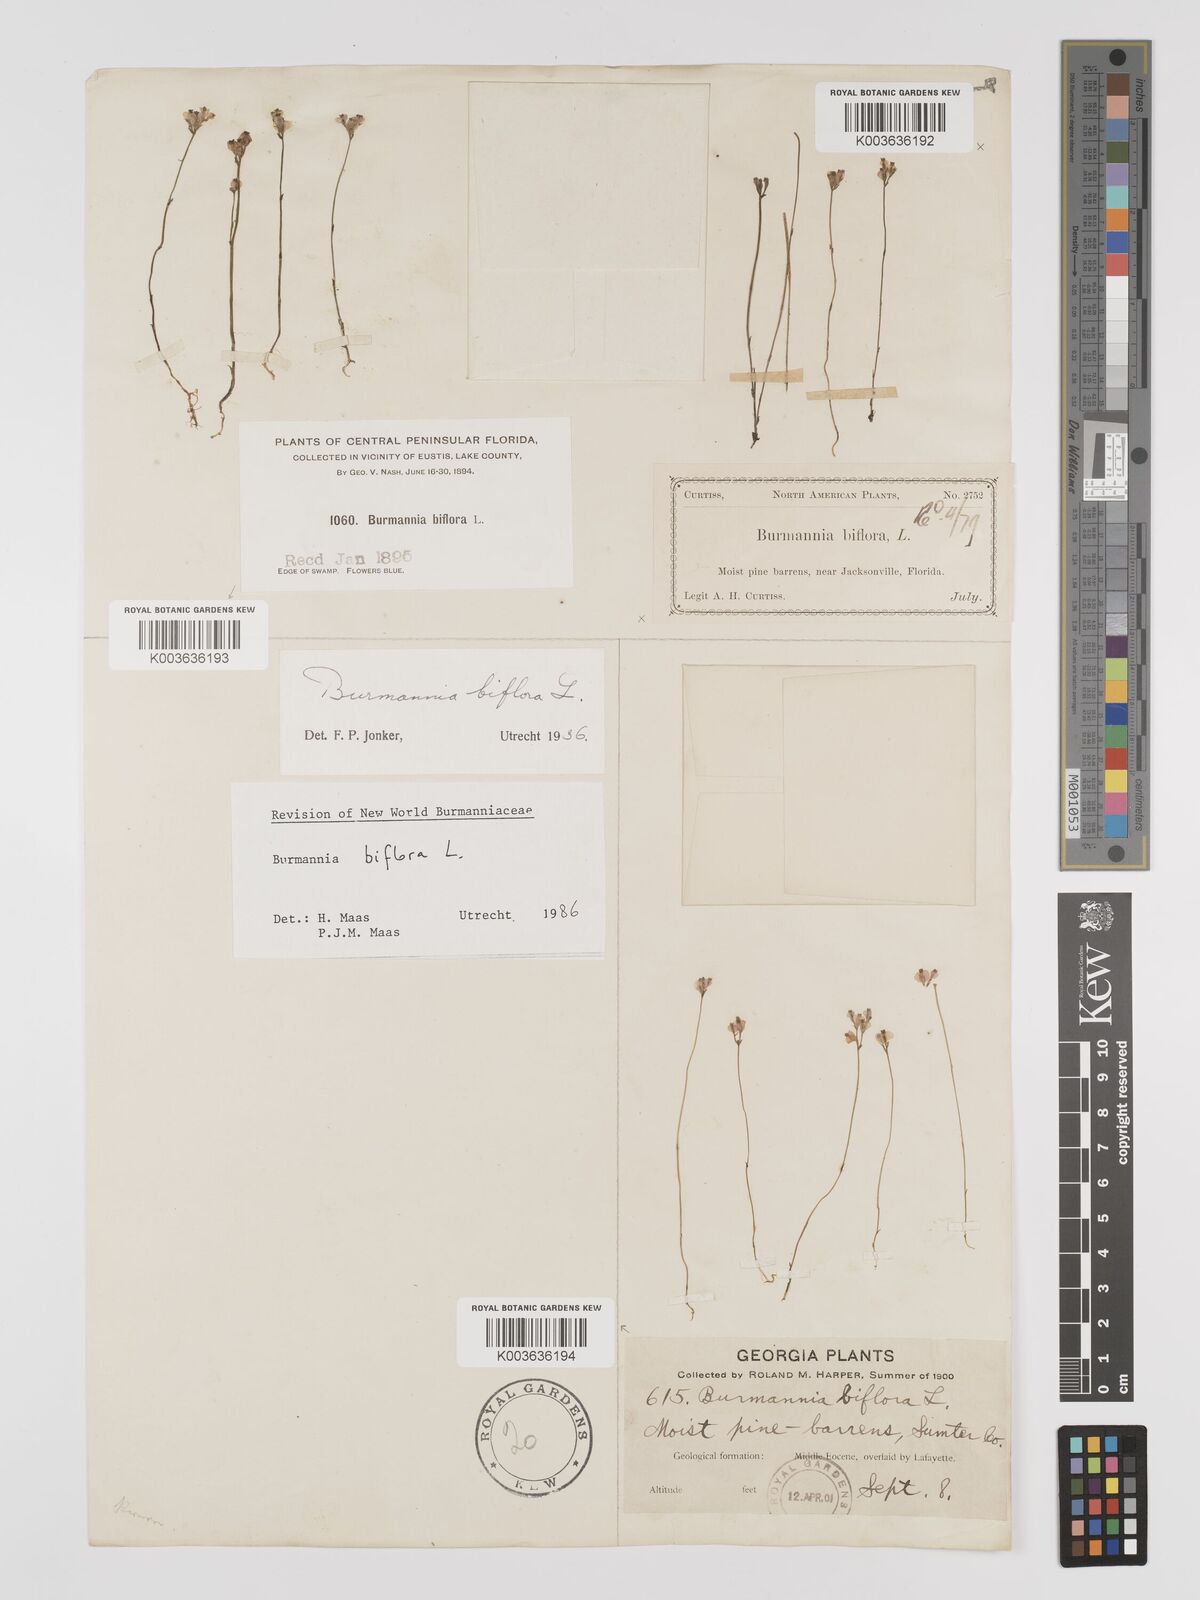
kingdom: Plantae
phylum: Tracheophyta
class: Liliopsida
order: Dioscoreales
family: Burmanniaceae
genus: Burmannia
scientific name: Burmannia biflora
